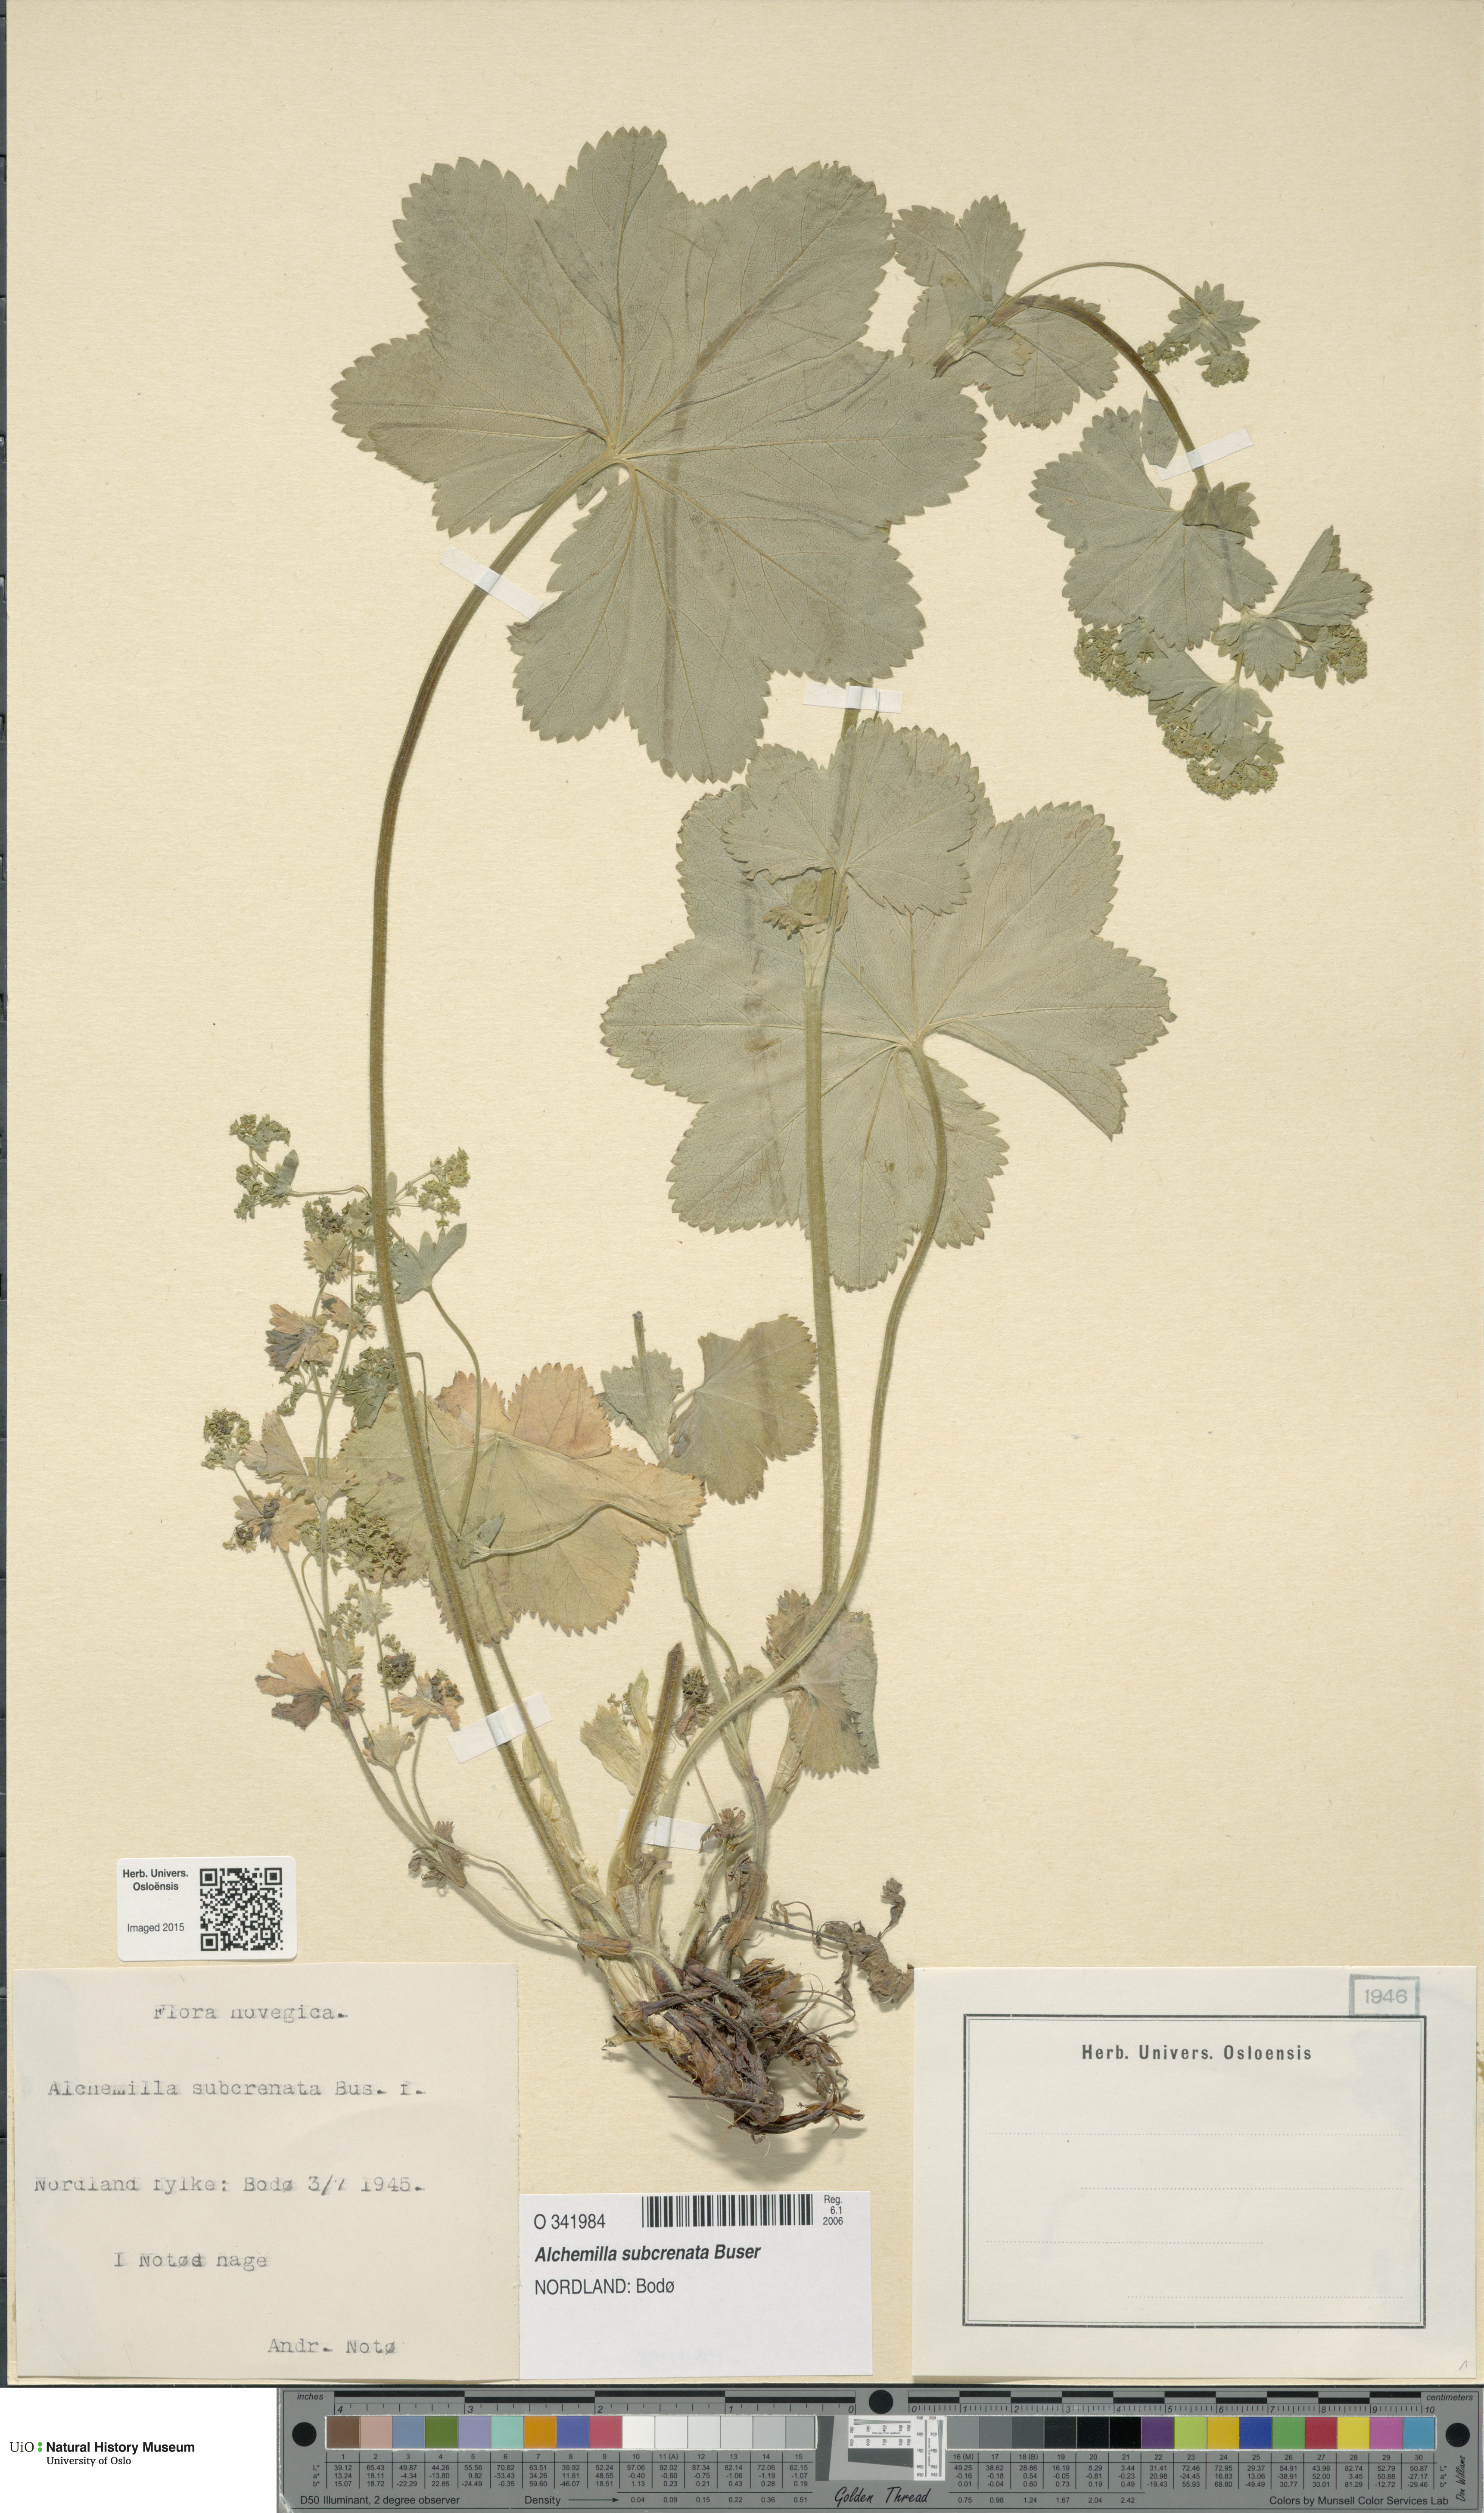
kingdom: Plantae
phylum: Tracheophyta
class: Magnoliopsida
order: Rosales
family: Rosaceae
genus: Alchemilla
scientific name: Alchemilla subcrenata
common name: Broadtooth lady's mantle
